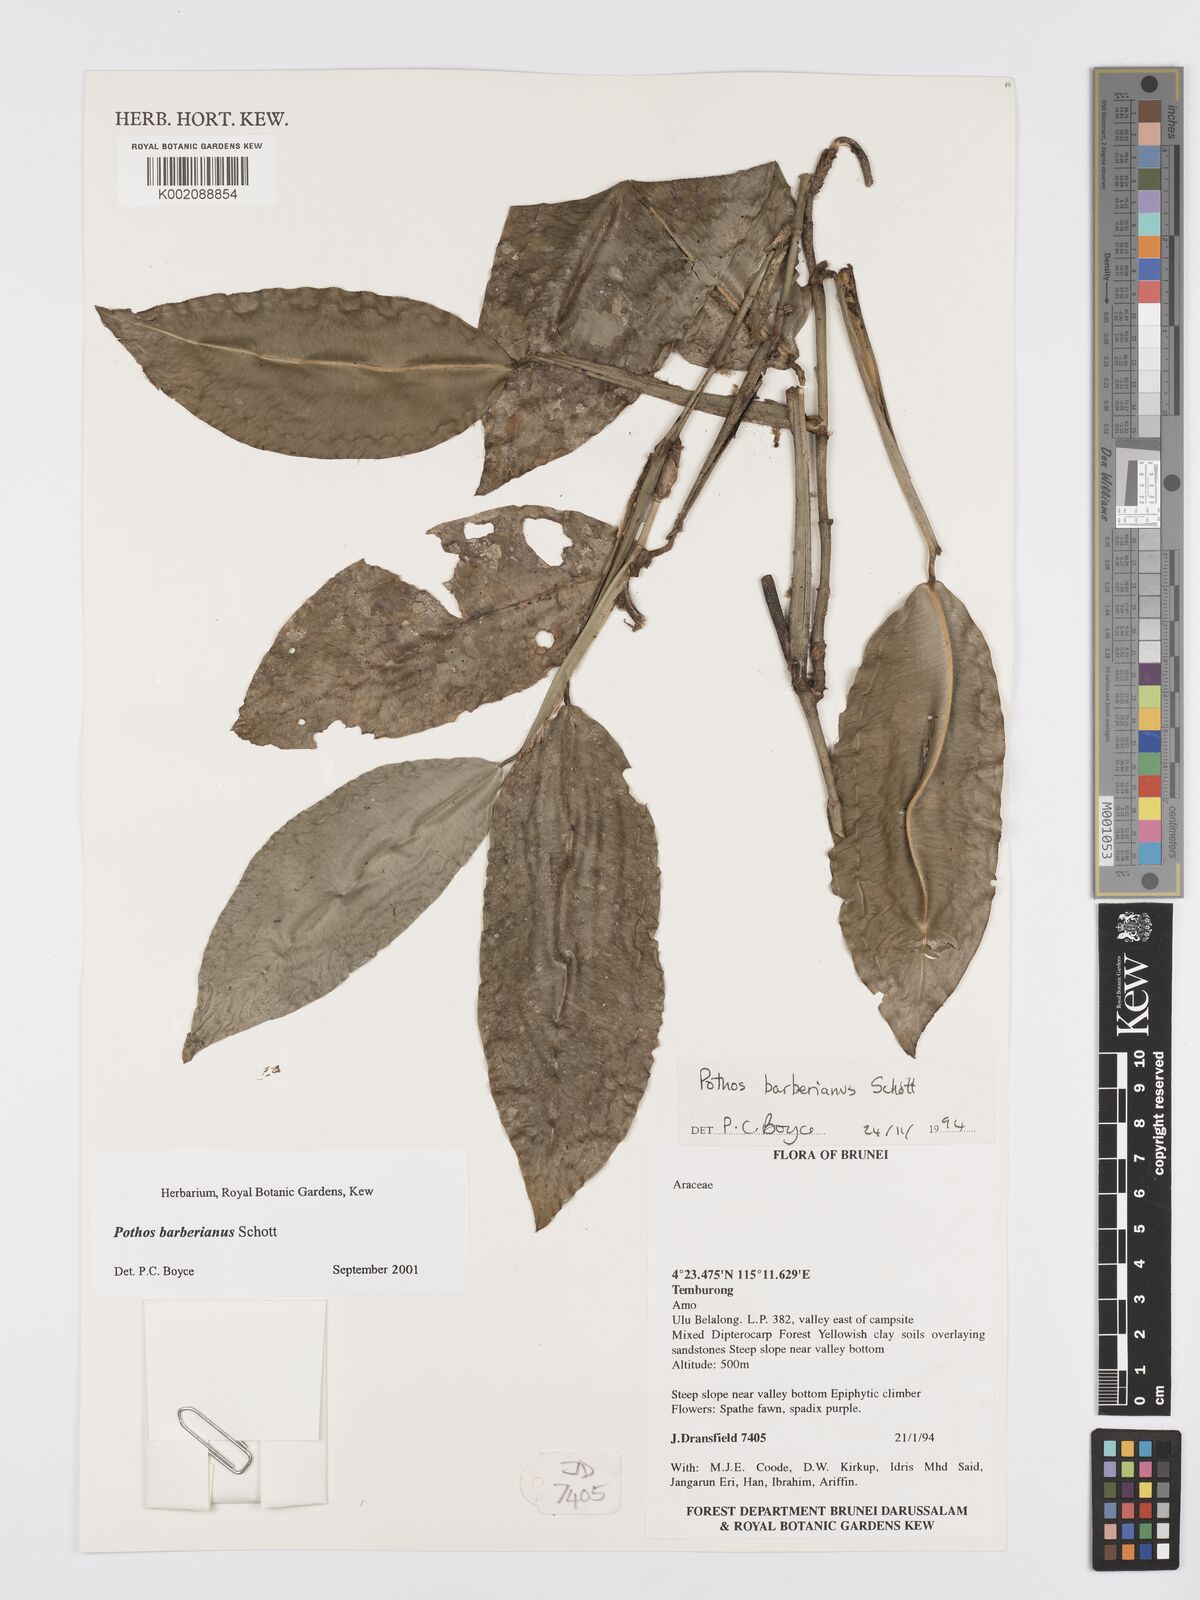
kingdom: Plantae
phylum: Tracheophyta
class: Liliopsida
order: Alismatales
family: Araceae
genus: Pothos
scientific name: Pothos barberianus
